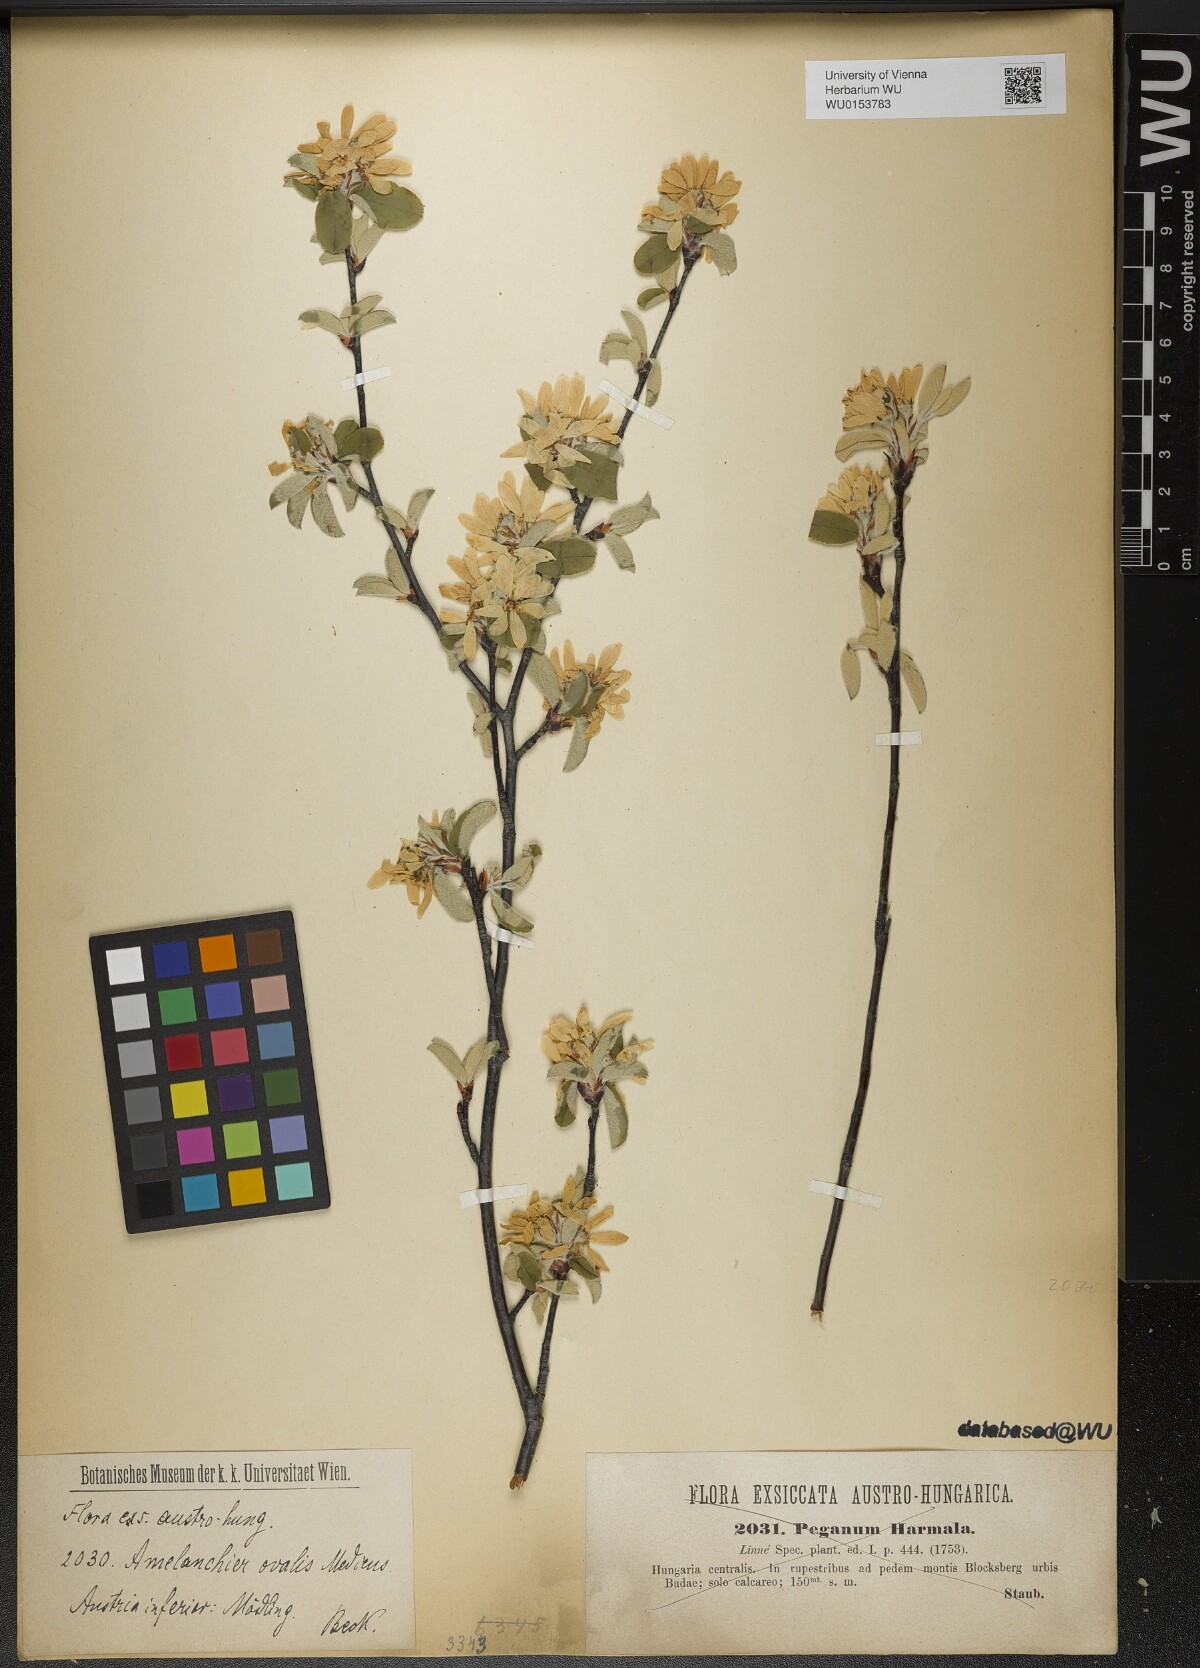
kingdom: Plantae
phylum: Tracheophyta
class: Magnoliopsida
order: Rosales
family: Rosaceae
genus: Amelanchier
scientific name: Amelanchier ovalis
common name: Serviceberry
